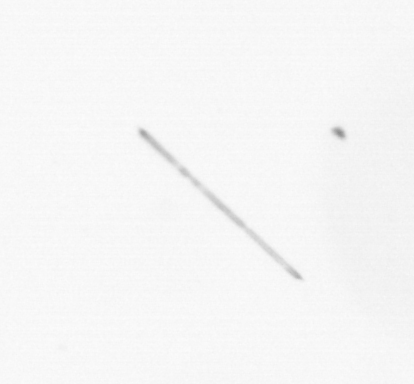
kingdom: Chromista
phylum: Ochrophyta
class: Bacillariophyceae
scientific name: Bacillariophyceae
